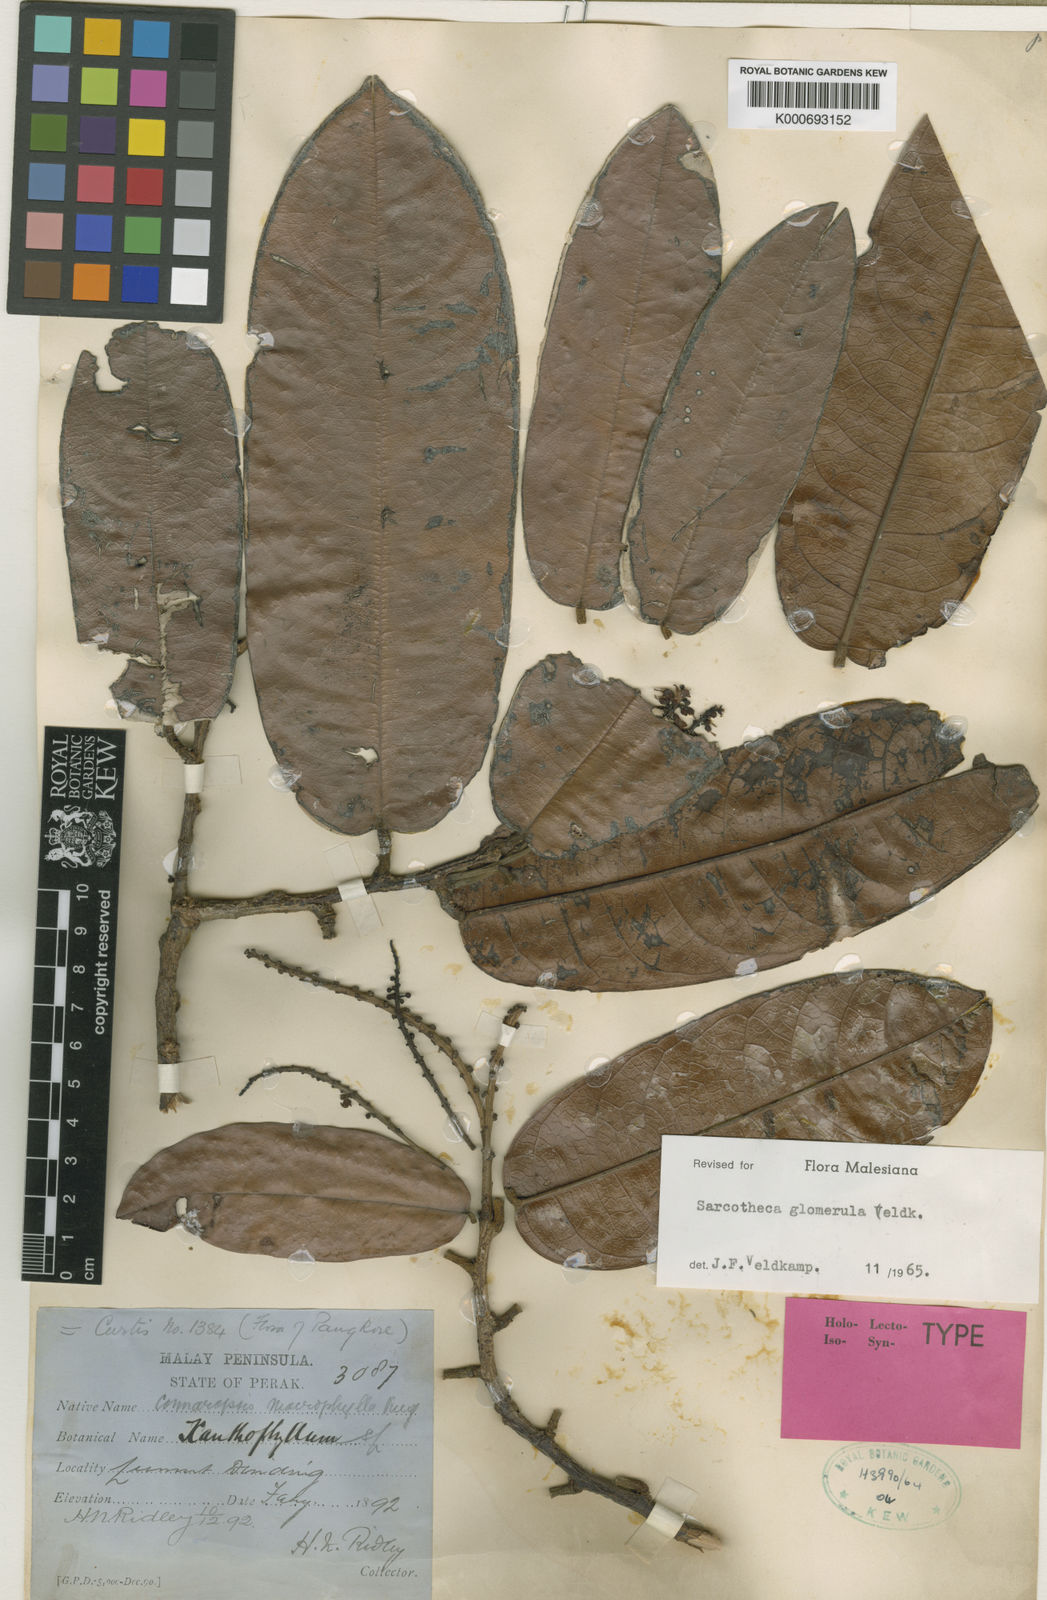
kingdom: Plantae
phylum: Tracheophyta
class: Magnoliopsida
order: Oxalidales
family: Oxalidaceae
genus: Sarcotheca
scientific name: Sarcotheca glomerula
